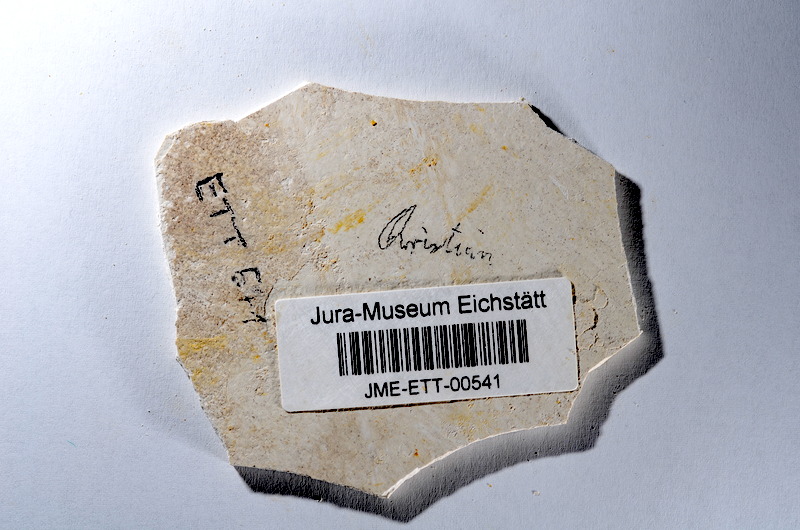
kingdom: Animalia
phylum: Chordata
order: Salmoniformes
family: Orthogonikleithridae
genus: Orthogonikleithrus
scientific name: Orthogonikleithrus hoelli
